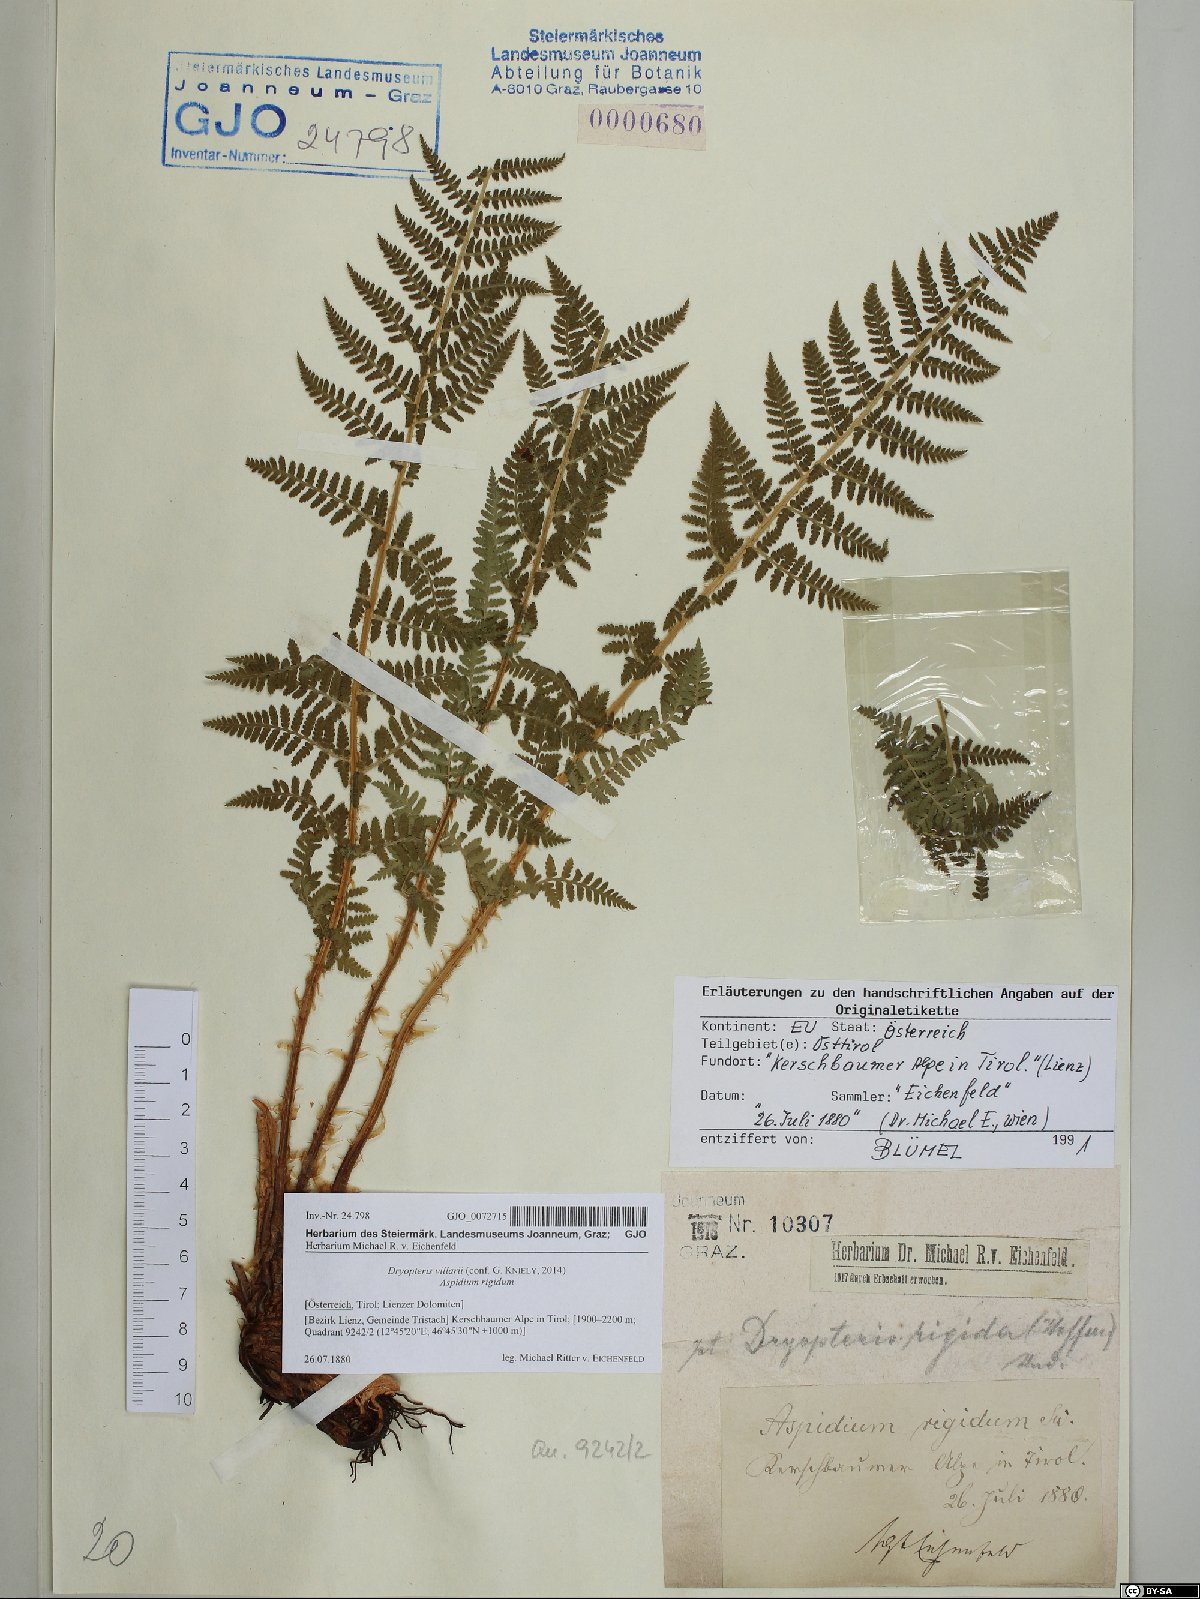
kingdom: Plantae
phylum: Tracheophyta
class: Polypodiopsida
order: Polypodiales
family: Dryopteridaceae
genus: Dryopteris
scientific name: Dryopteris villarii
